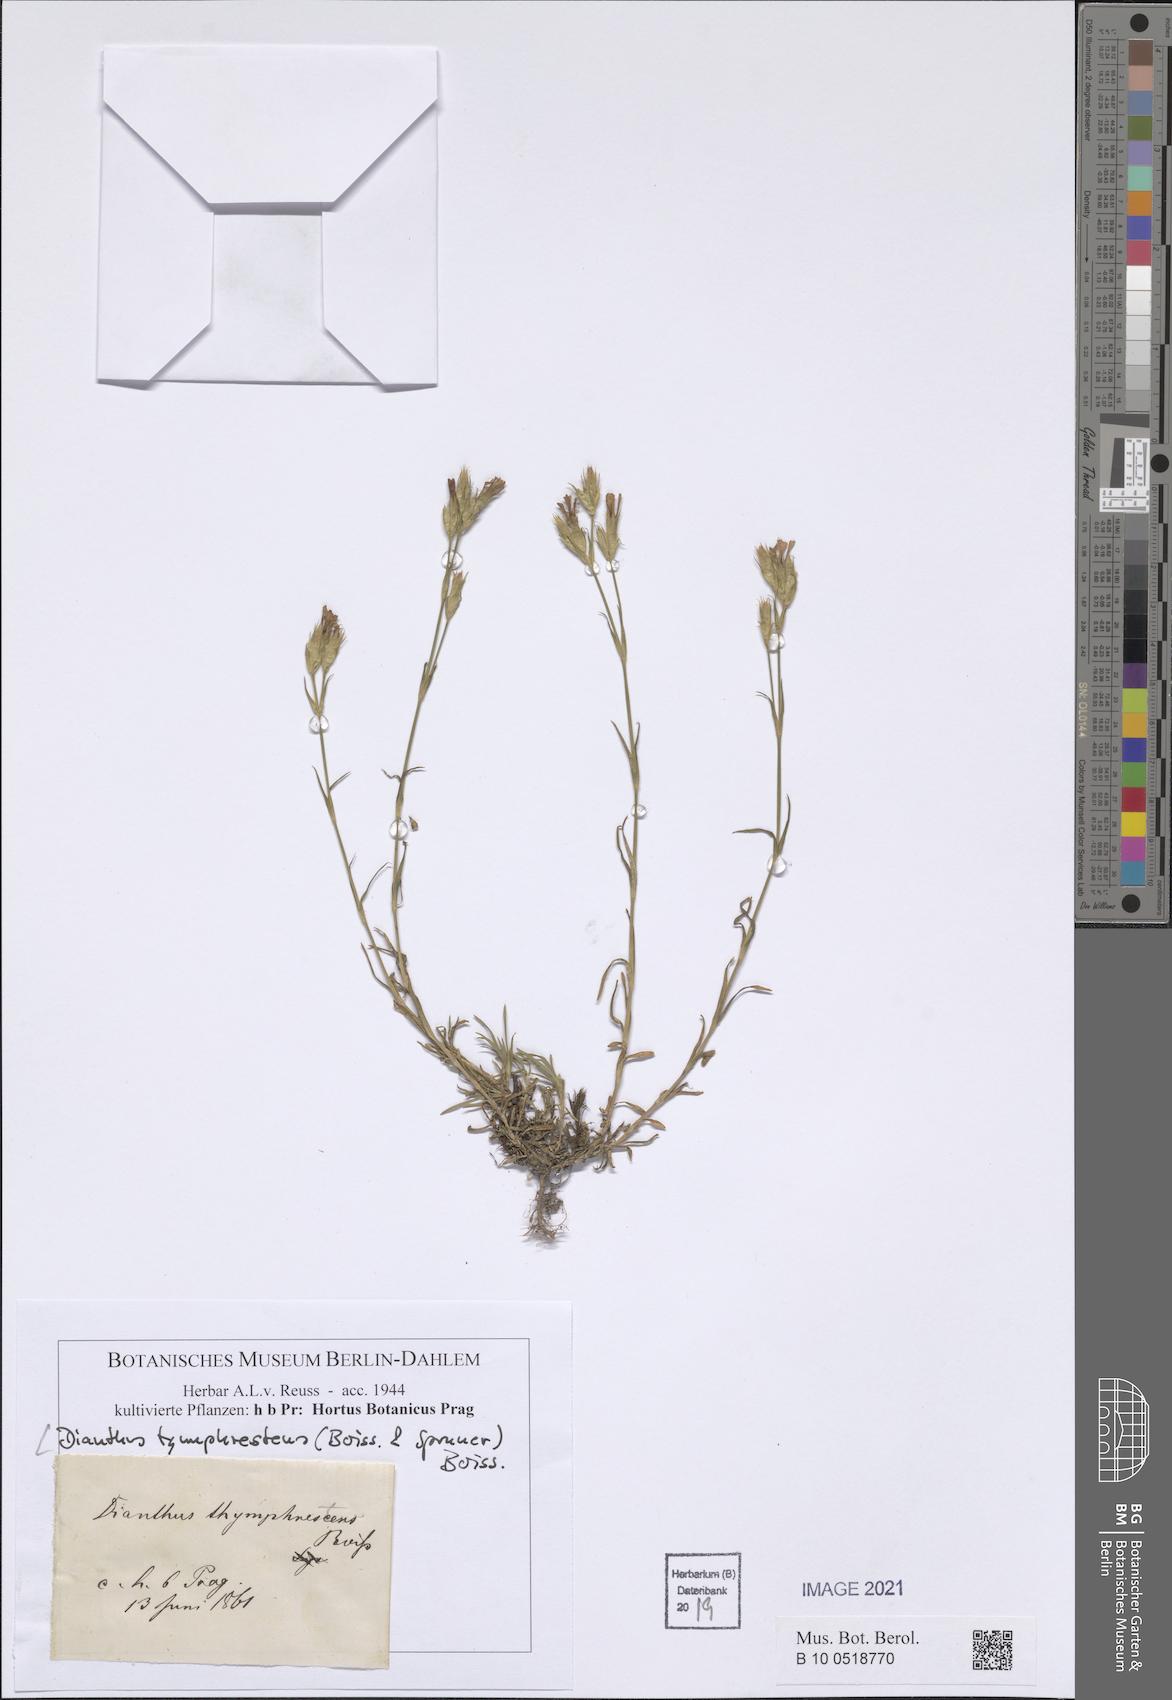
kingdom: Plantae
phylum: Tracheophyta
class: Magnoliopsida
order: Caryophyllales
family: Caryophyllaceae
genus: Dianthus
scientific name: Dianthus tymphresteus
